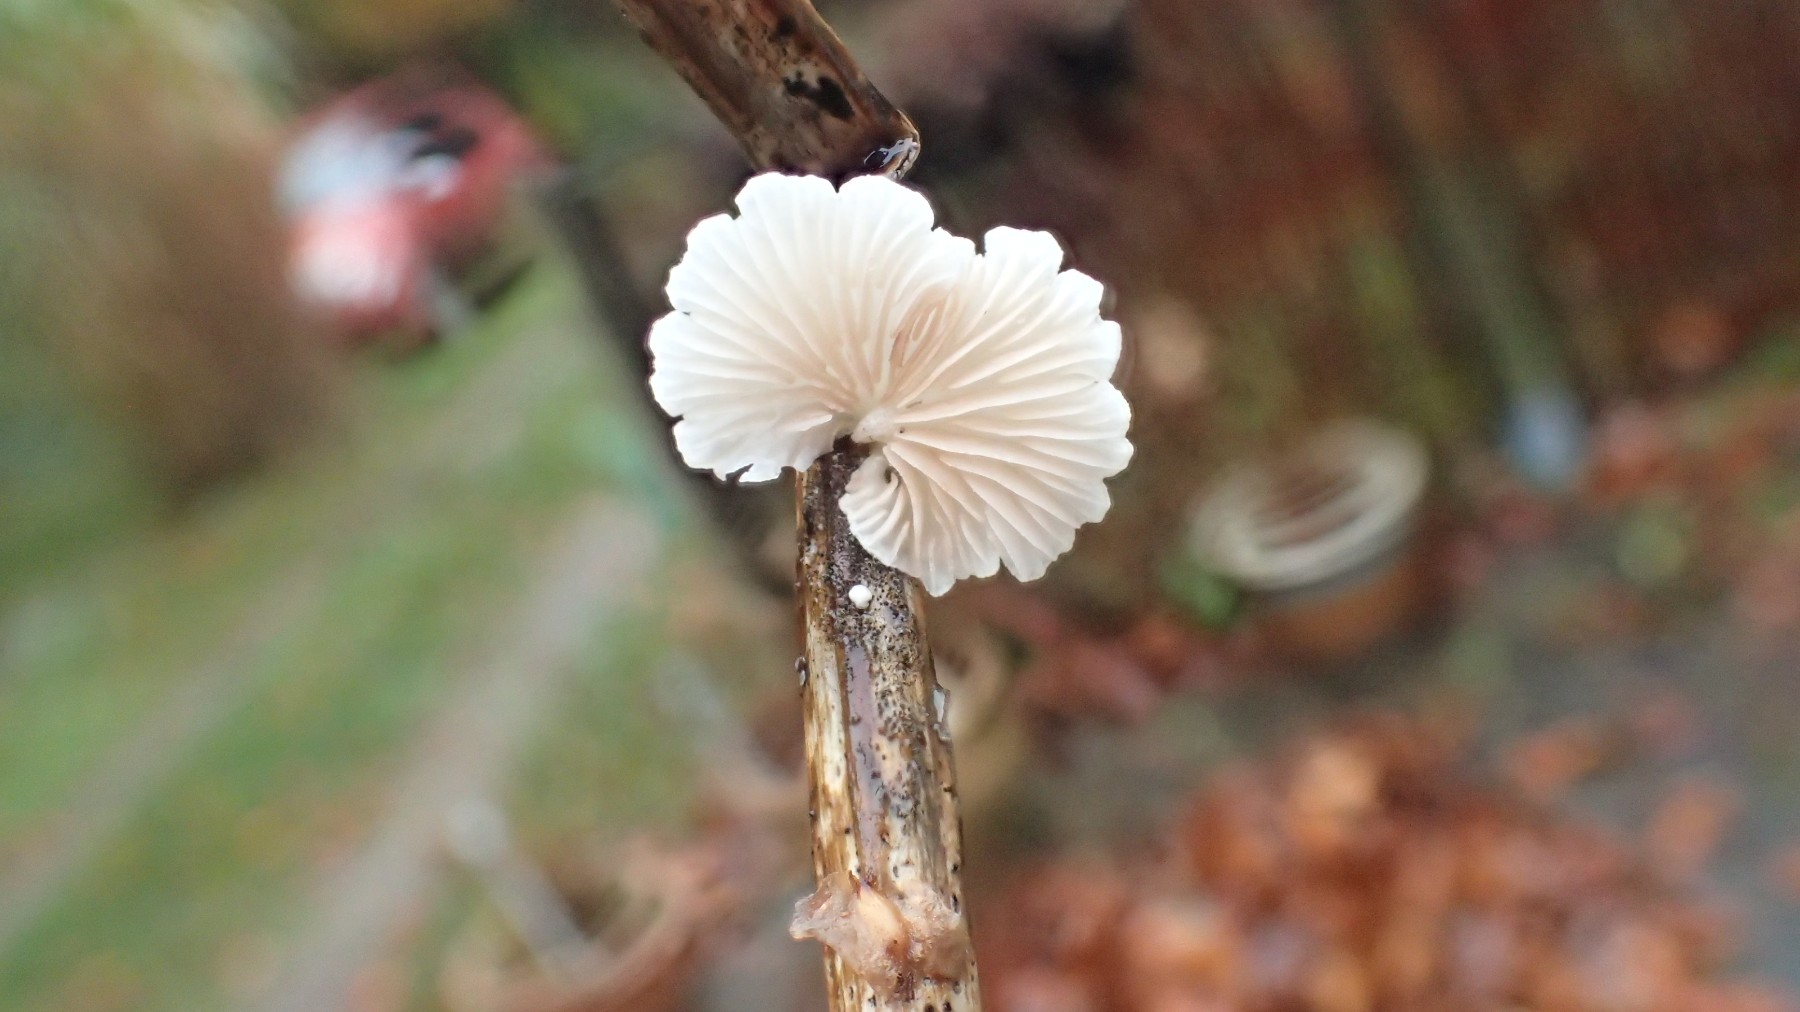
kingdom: Fungi
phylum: Basidiomycota
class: Agaricomycetes
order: Agaricales
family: Crepidotaceae
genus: Crepidotus
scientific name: Crepidotus luteolus
